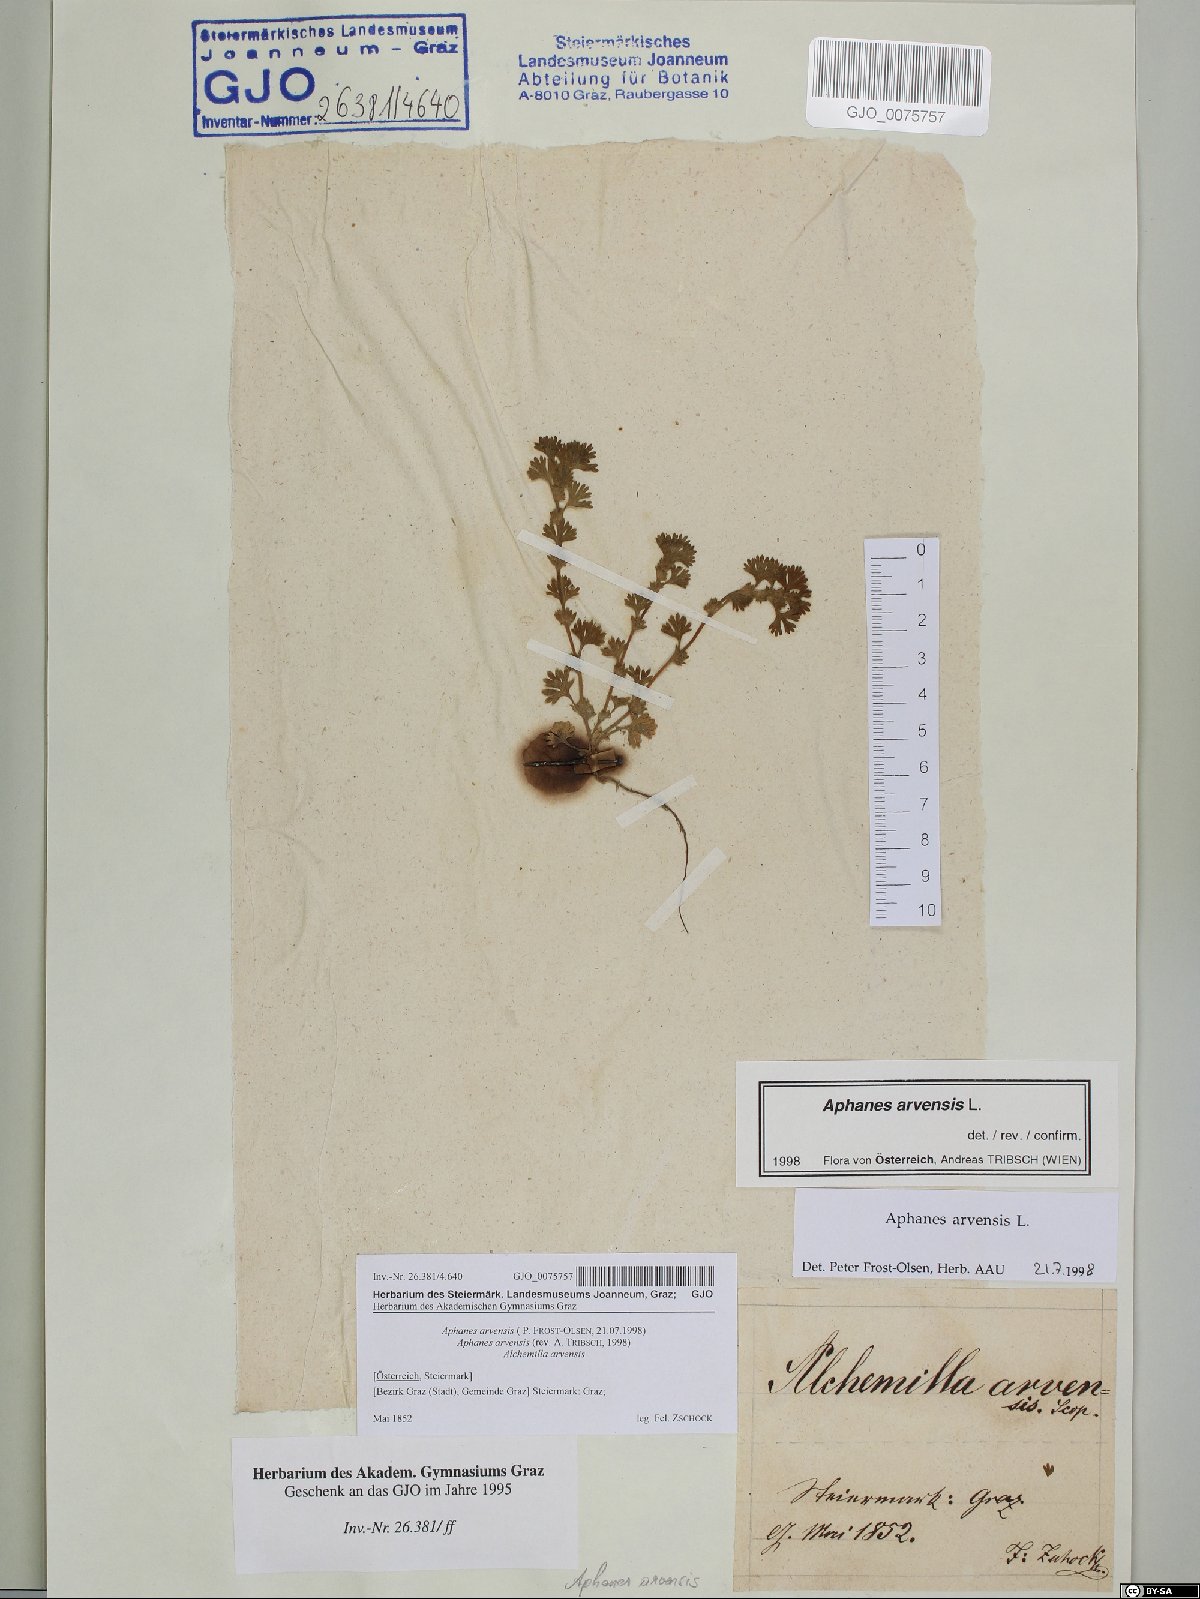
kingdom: Plantae
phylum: Tracheophyta
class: Magnoliopsida
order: Rosales
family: Rosaceae
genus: Aphanes
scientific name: Aphanes arvensis
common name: Parsley-piert
